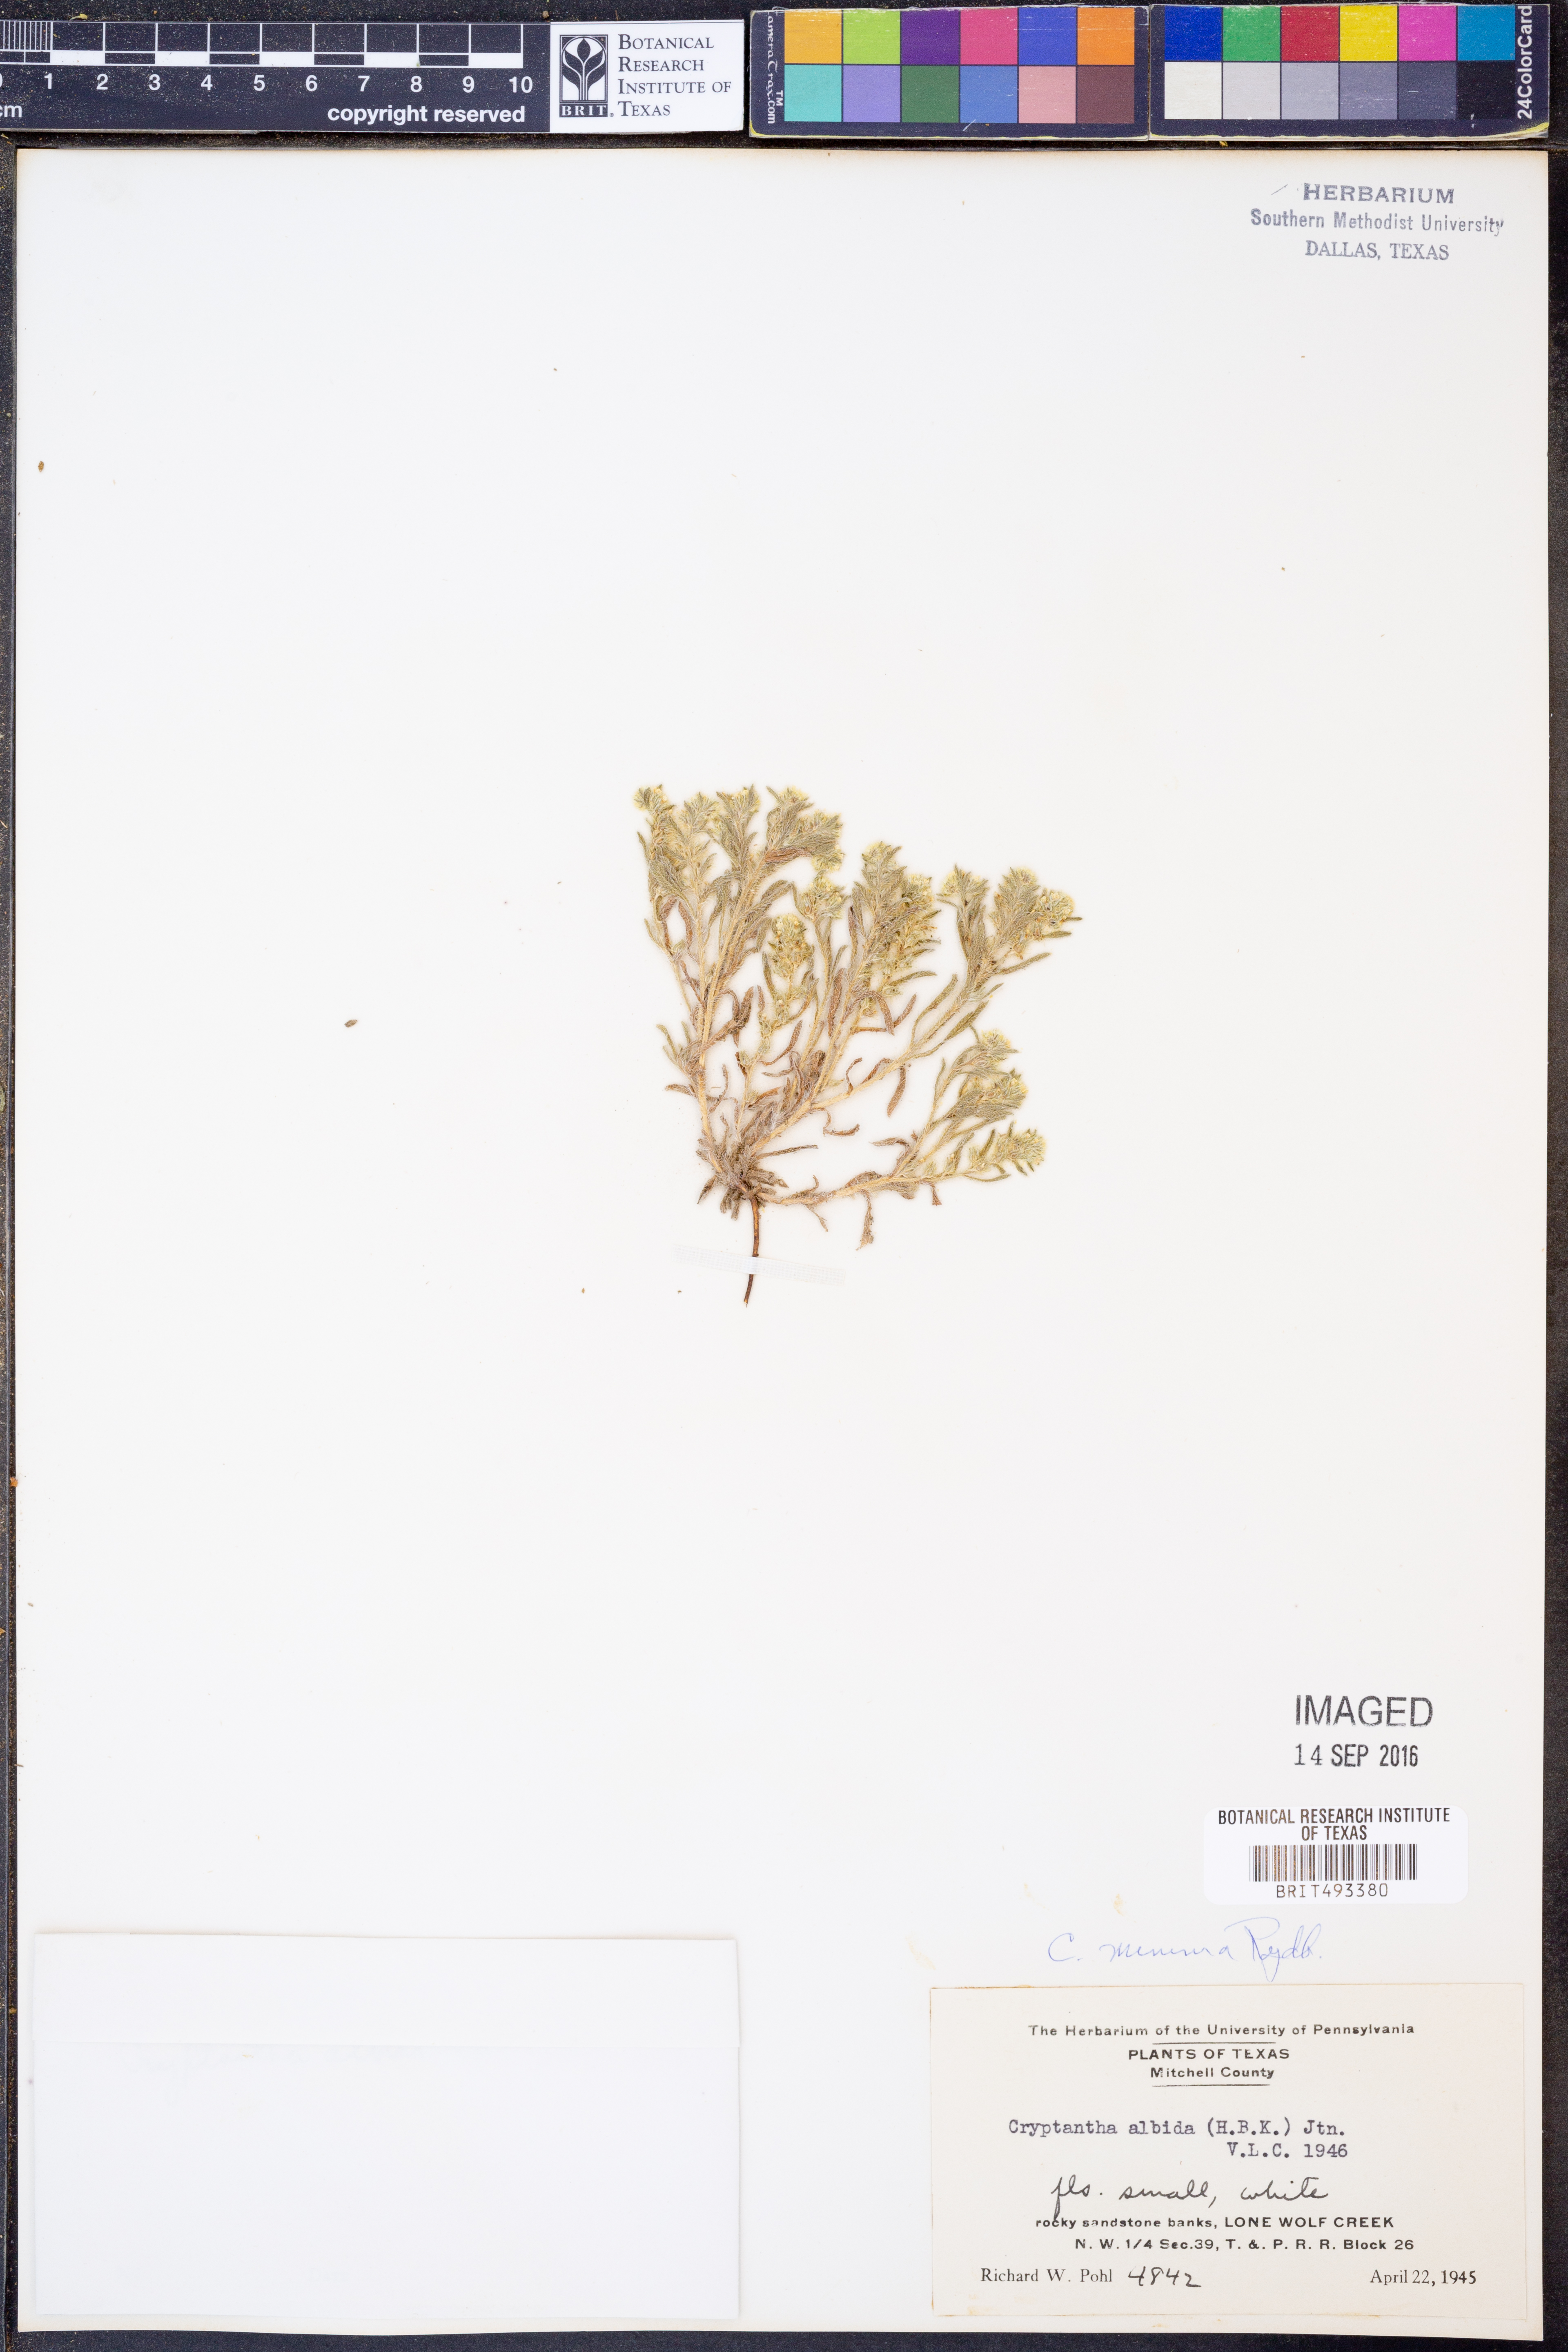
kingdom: Plantae
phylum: Tracheophyta
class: Magnoliopsida
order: Boraginales
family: Boraginaceae
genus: Cryptantha
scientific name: Cryptantha minima
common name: Little cat's-eye
